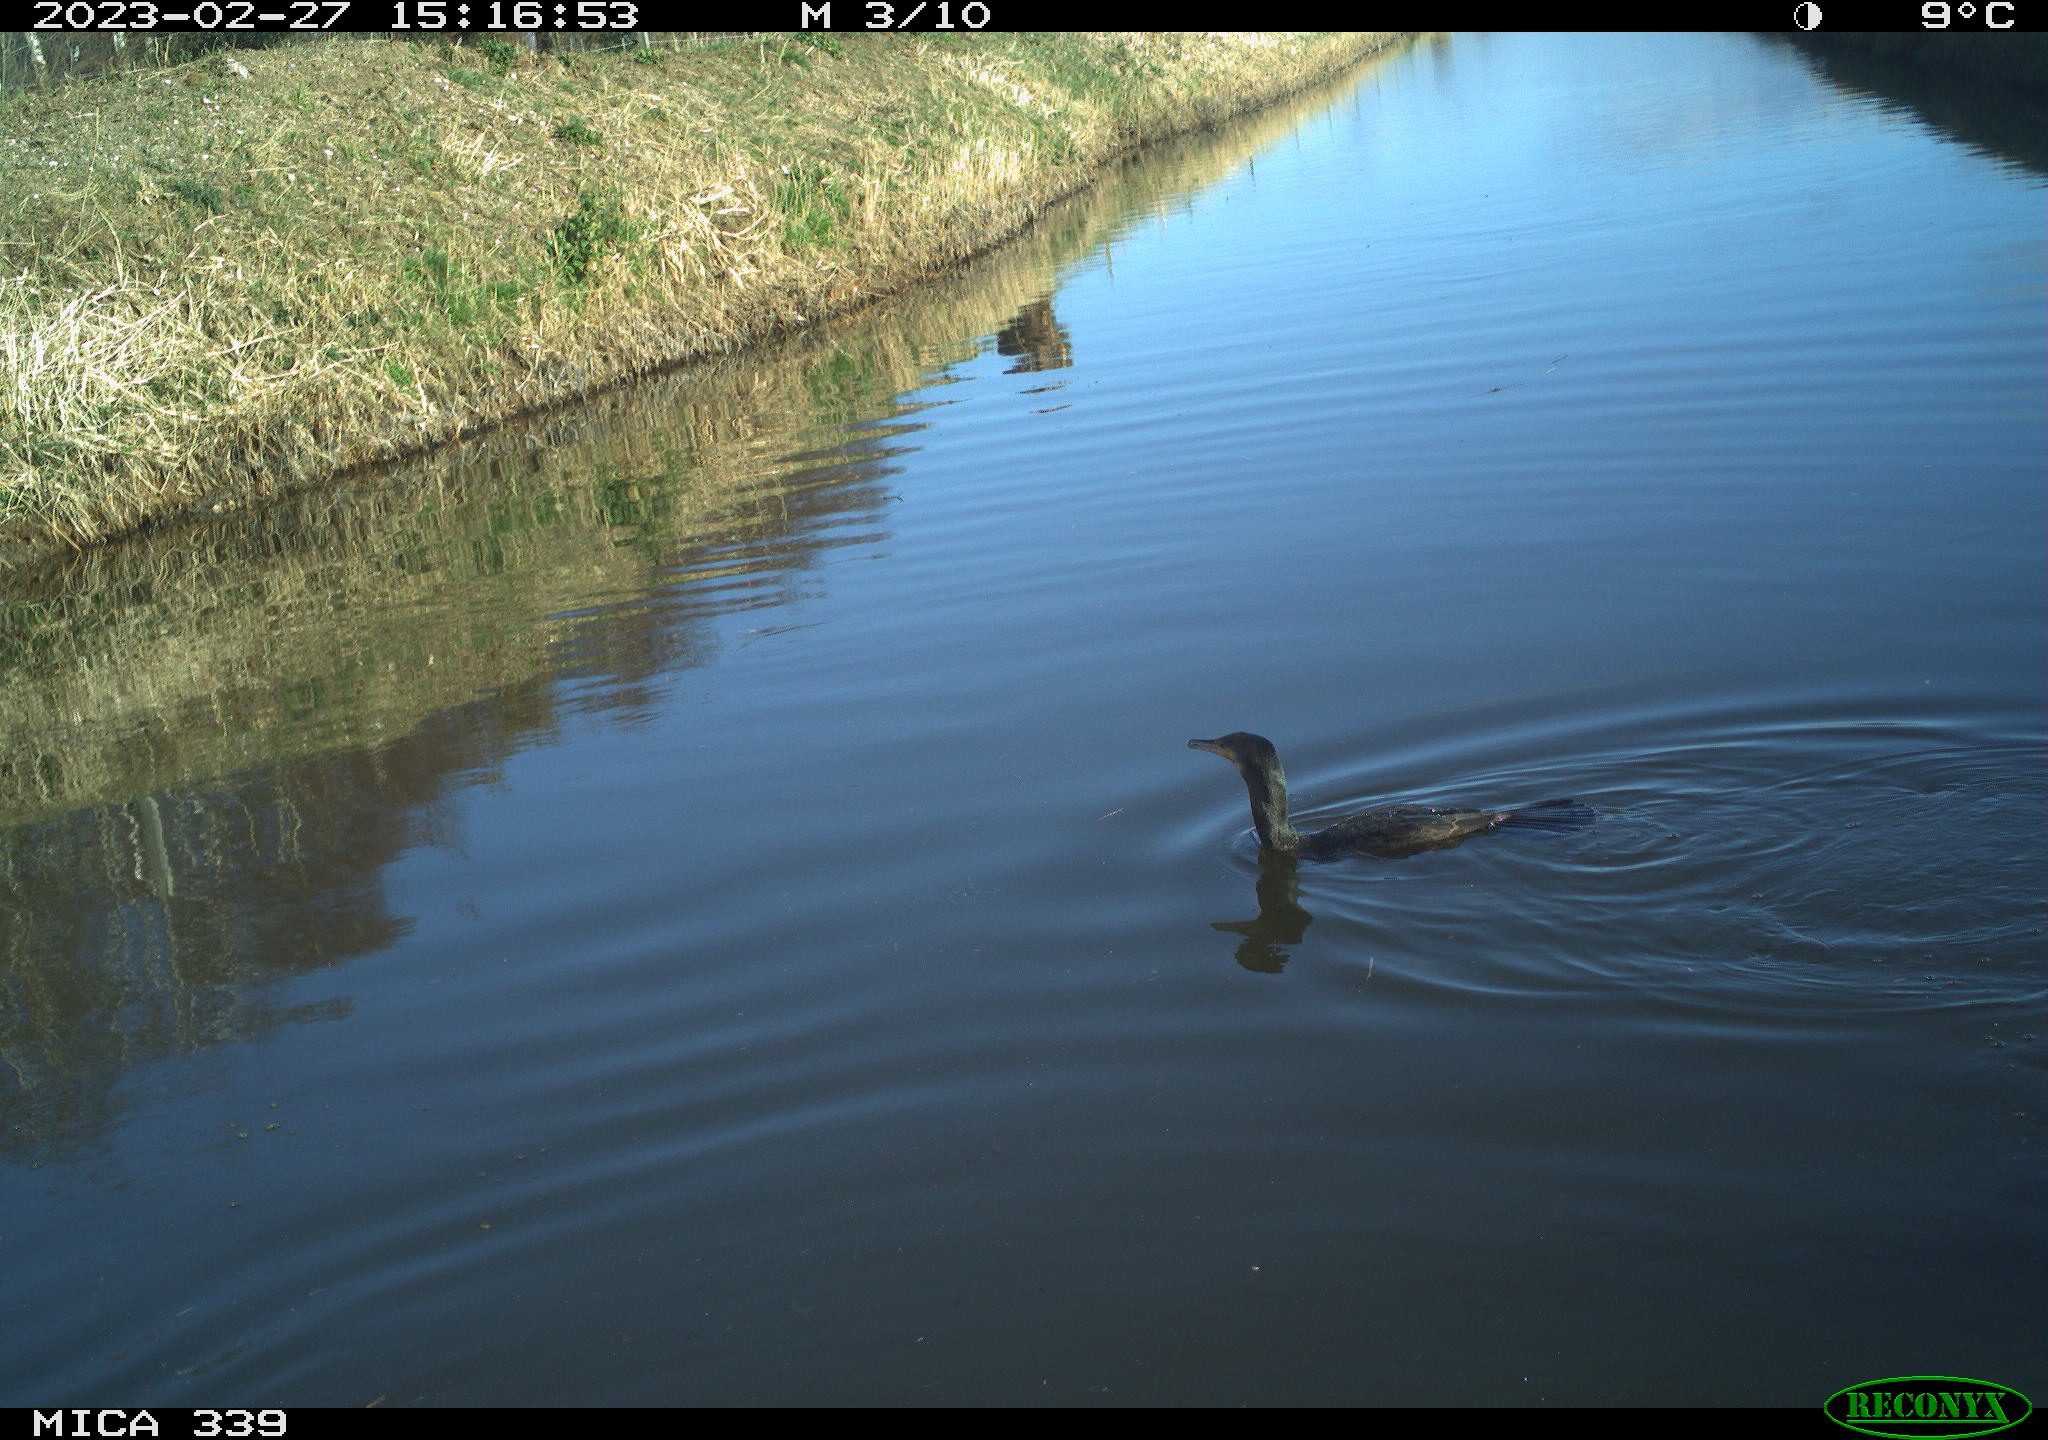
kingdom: Animalia
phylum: Chordata
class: Aves
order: Suliformes
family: Phalacrocoracidae
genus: Phalacrocorax
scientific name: Phalacrocorax carbo
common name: Great cormorant
